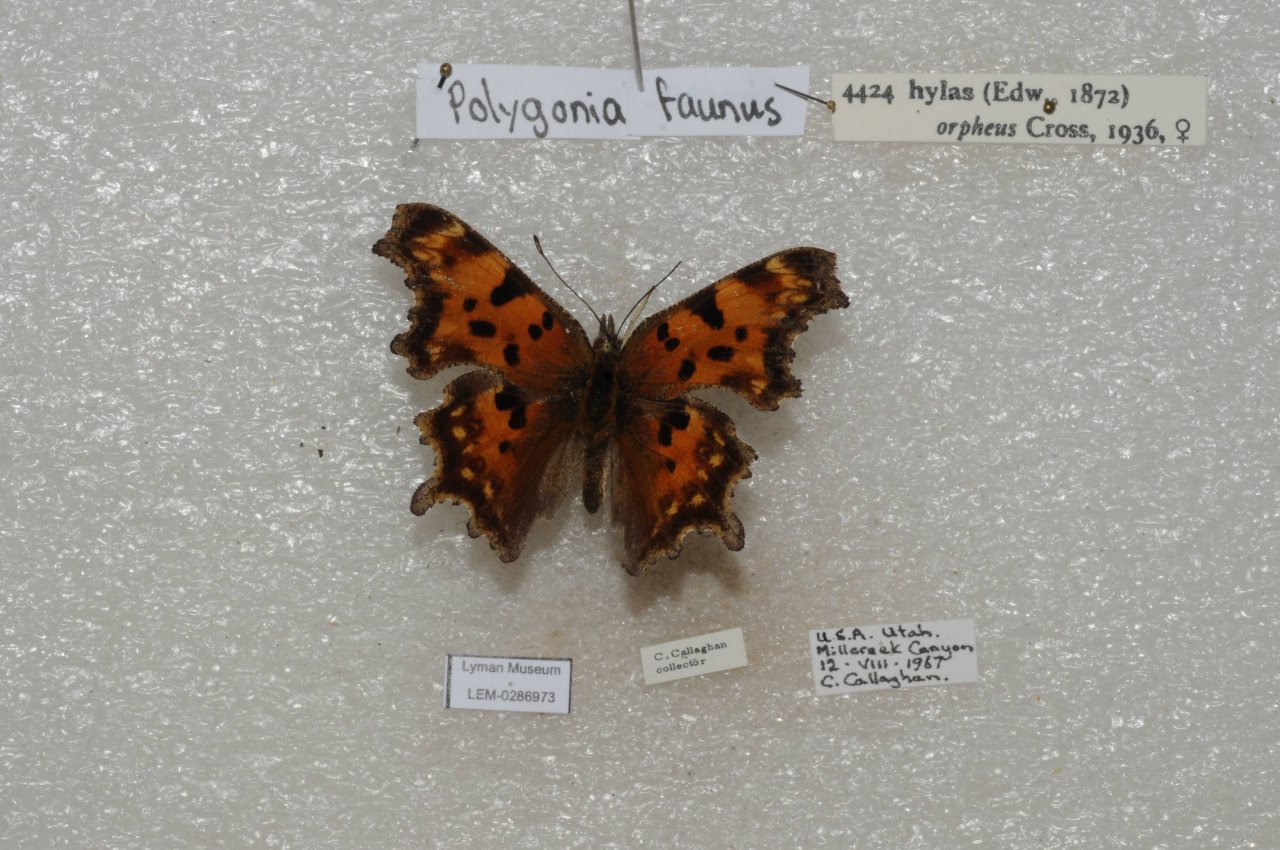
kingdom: Animalia
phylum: Arthropoda
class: Insecta
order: Lepidoptera
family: Nymphalidae
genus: Polygonia
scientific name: Polygonia faunus
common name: Green Comma
